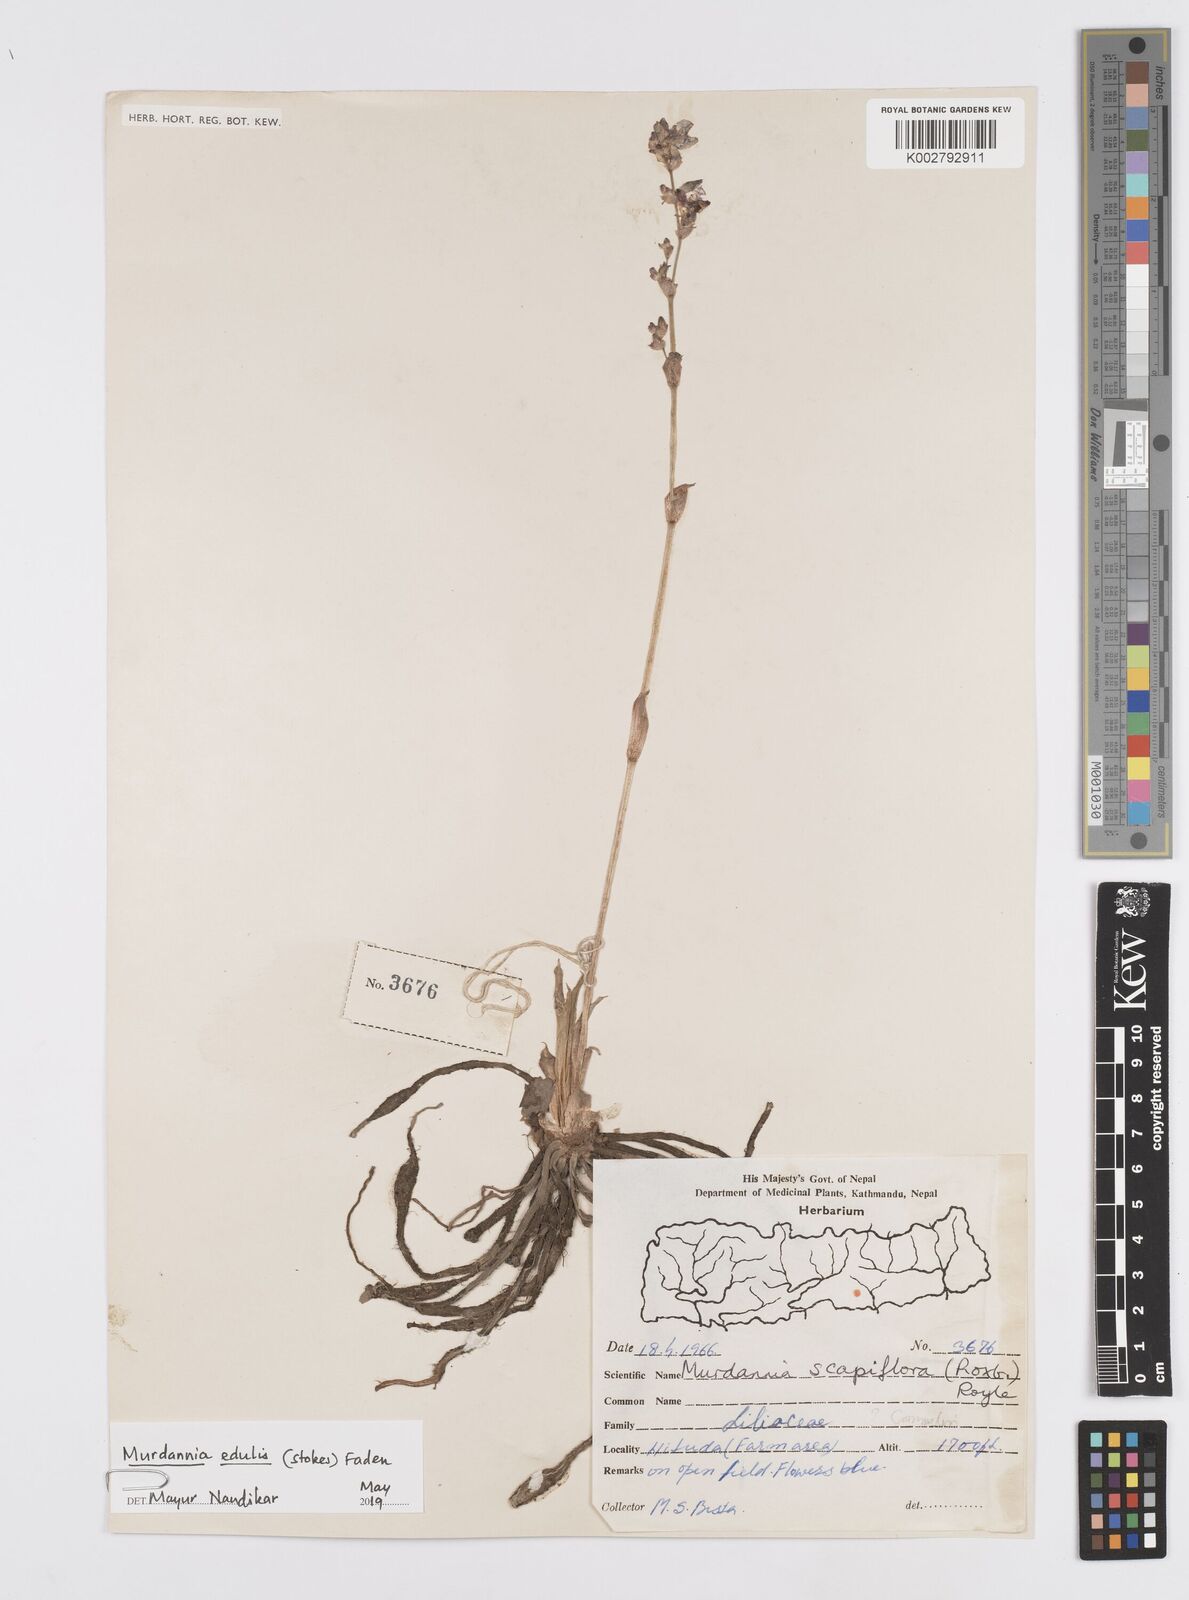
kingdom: Plantae
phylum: Tracheophyta
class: Liliopsida
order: Commelinales
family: Commelinaceae
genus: Murdannia
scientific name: Murdannia edulis
